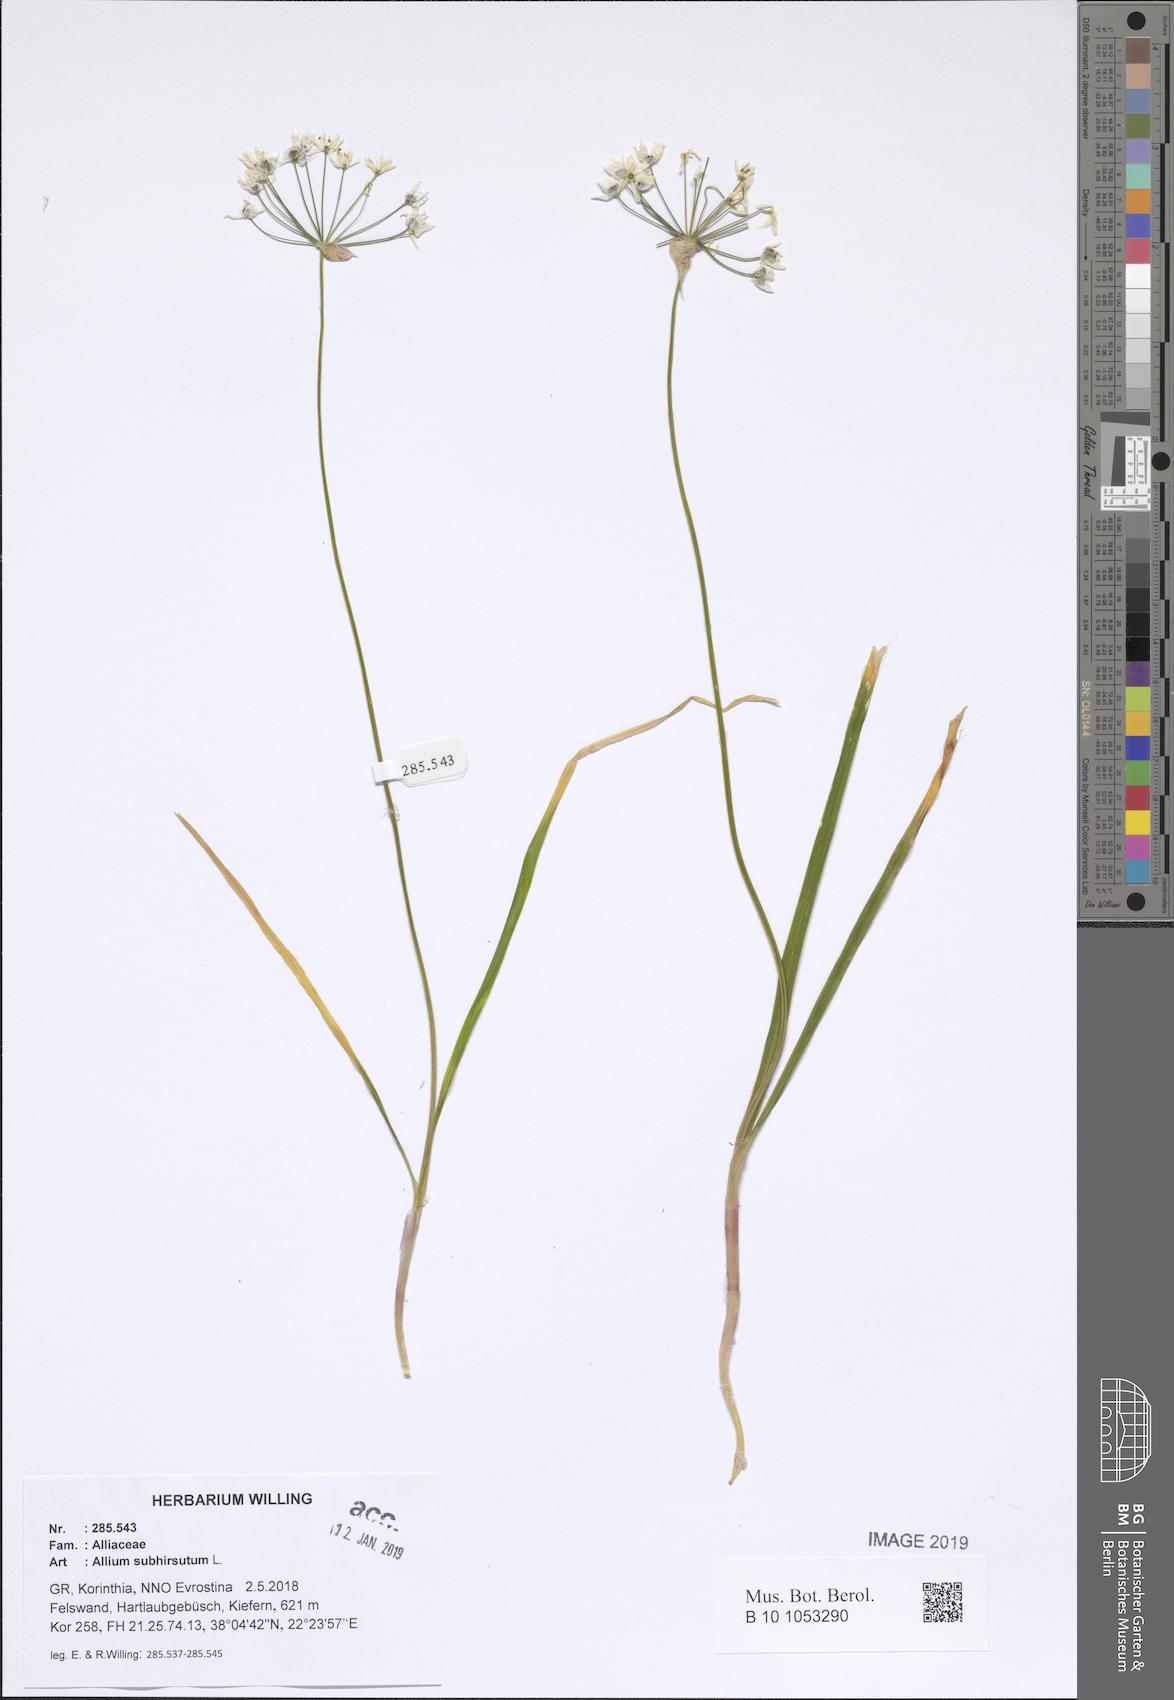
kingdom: Plantae
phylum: Tracheophyta
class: Liliopsida
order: Asparagales
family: Amaryllidaceae
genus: Allium
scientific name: Allium subhirsutum
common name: Hairy garlic
